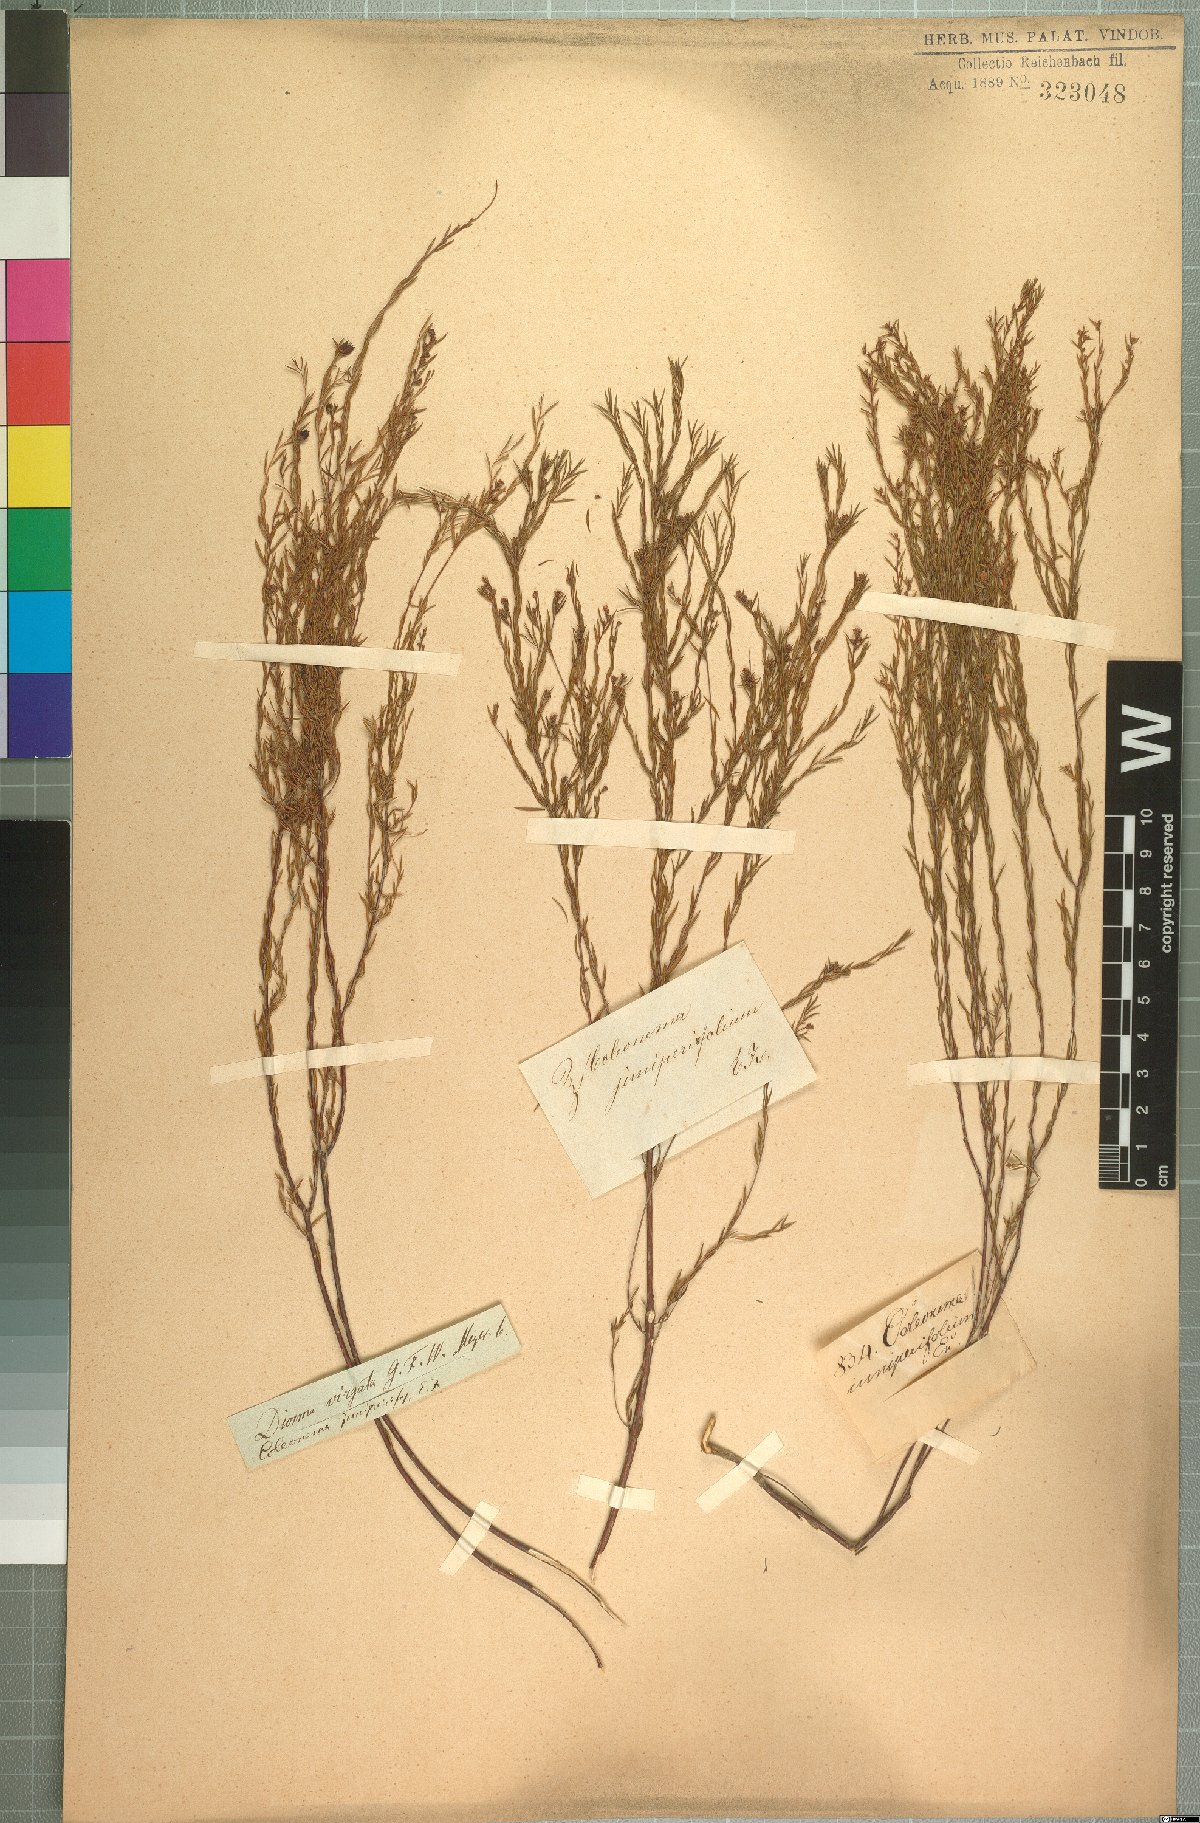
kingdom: Plantae
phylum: Tracheophyta
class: Magnoliopsida
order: Sapindales
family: Rutaceae
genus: Coleonema
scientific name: Coleonema juniperinum
